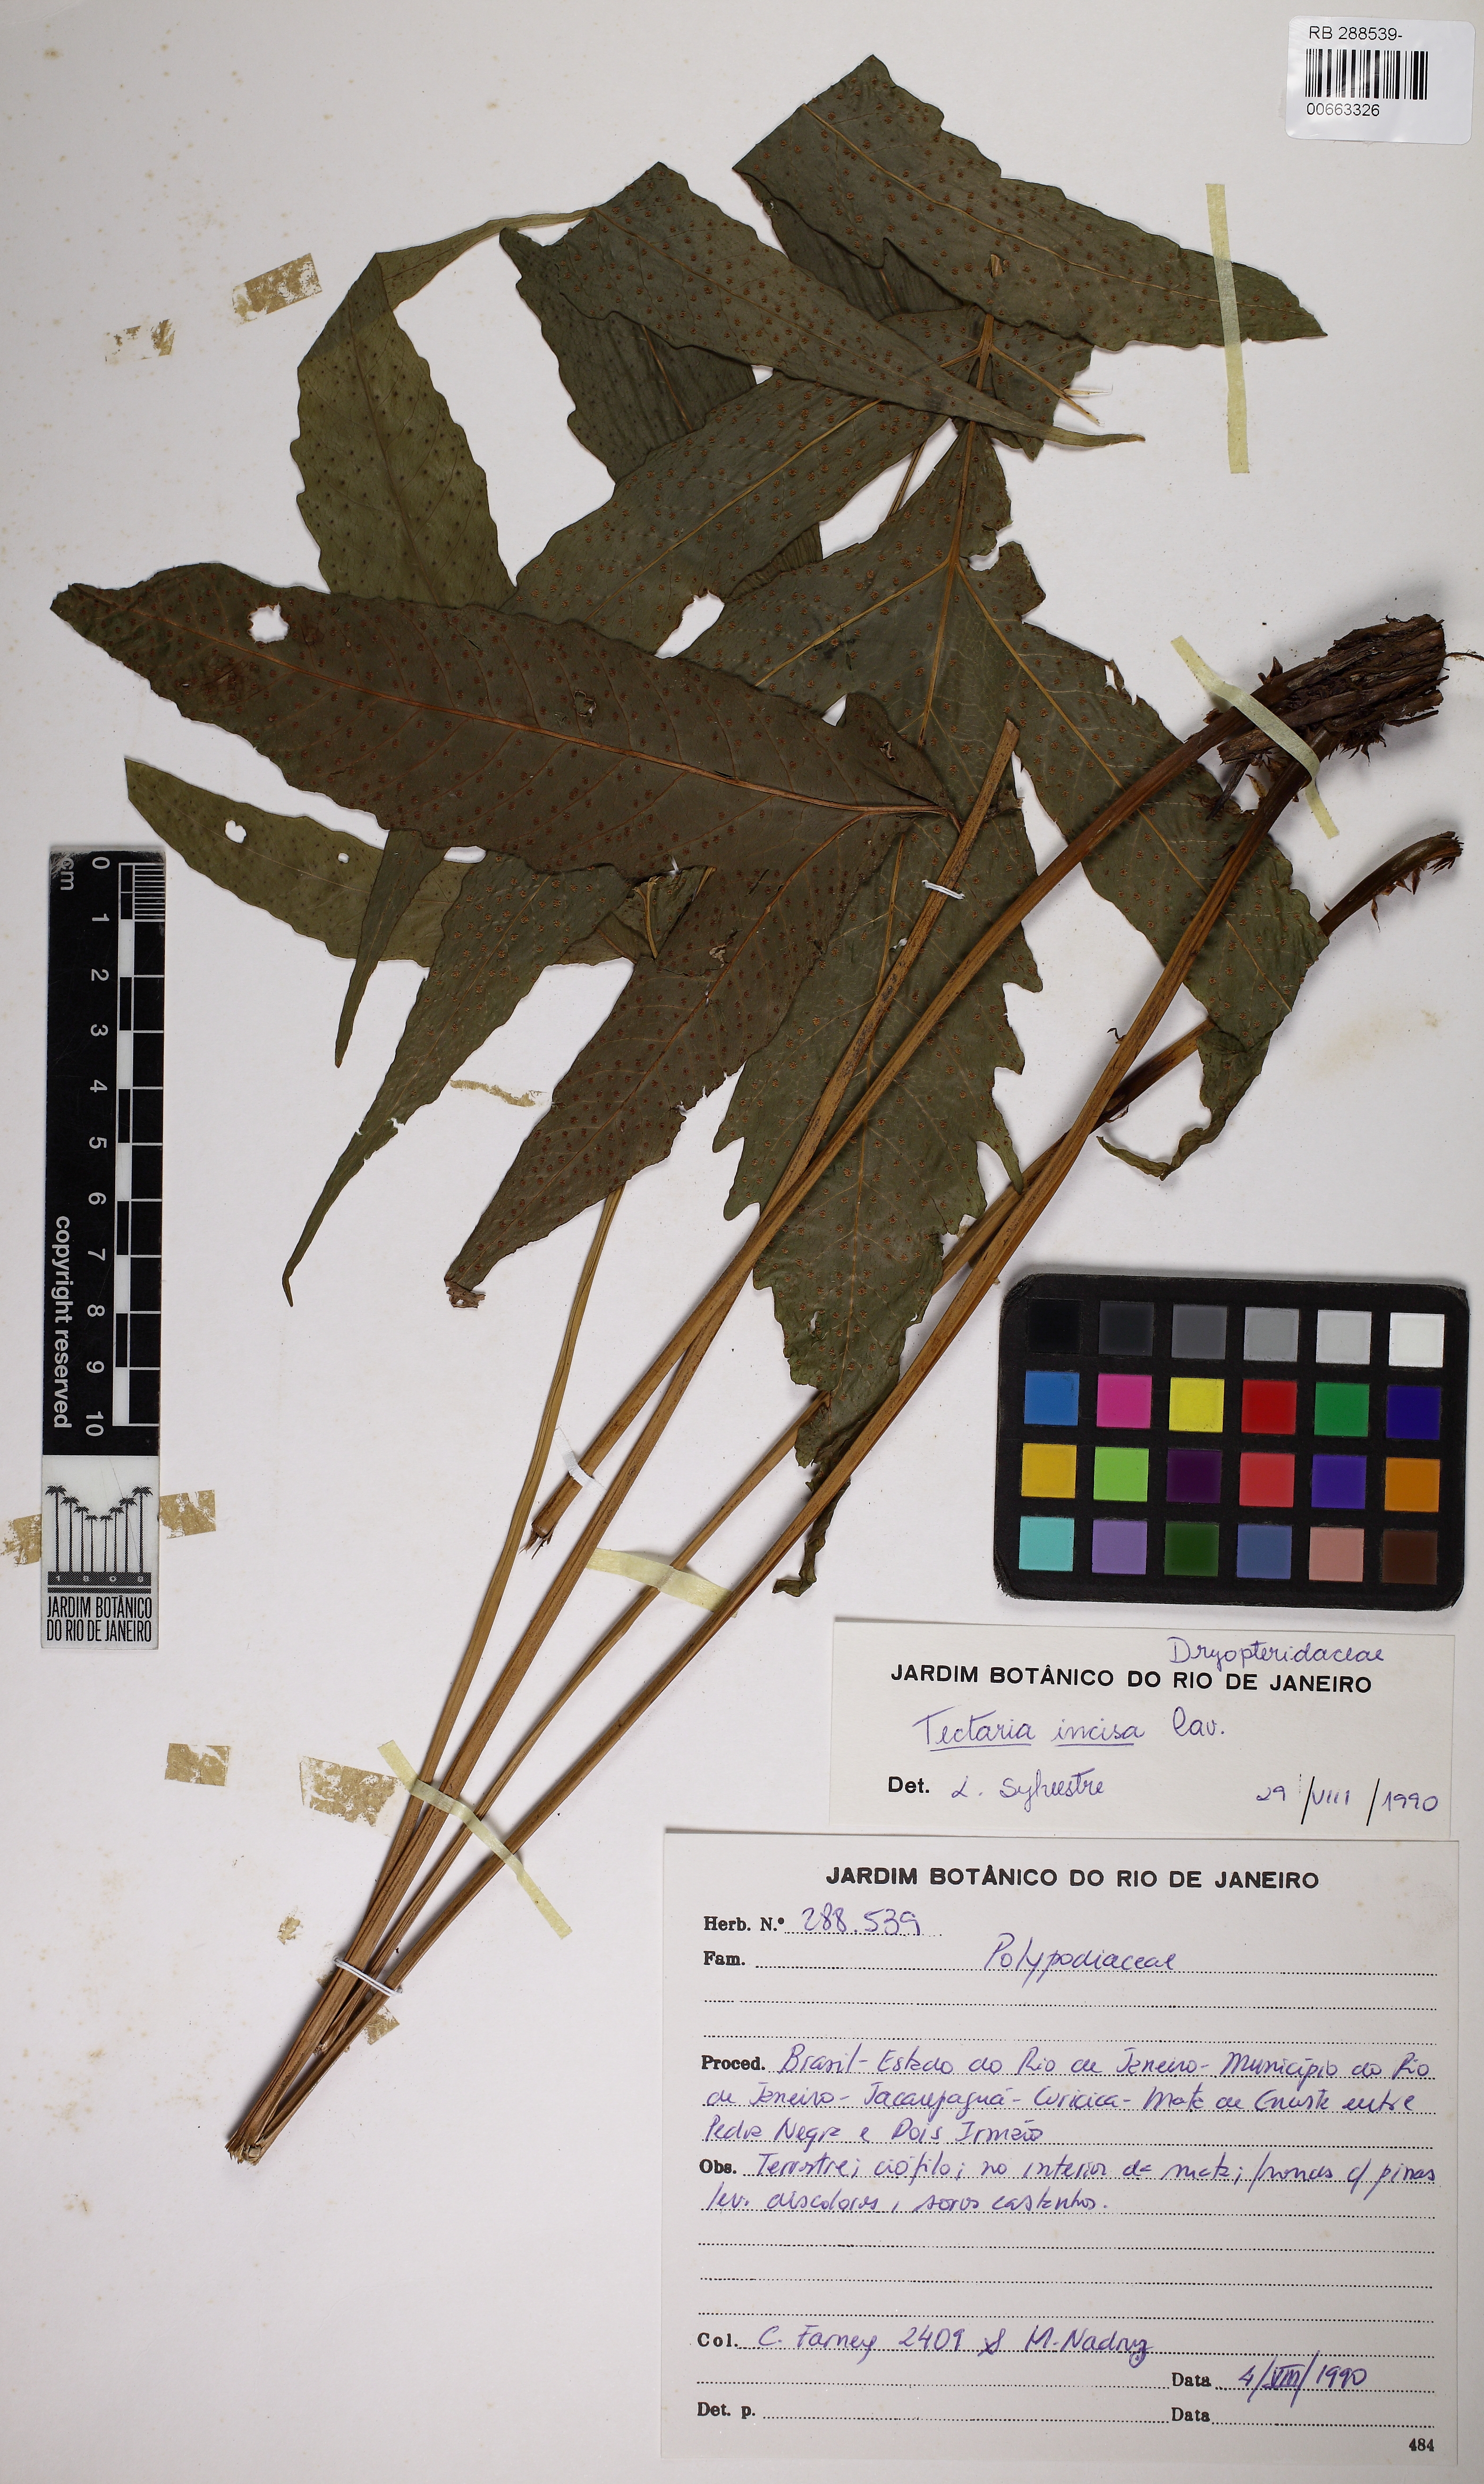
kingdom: Plantae
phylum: Tracheophyta
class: Polypodiopsida
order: Polypodiales
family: Tectariaceae
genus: Tectaria
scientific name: Tectaria incisa
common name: Incised halberd fern
